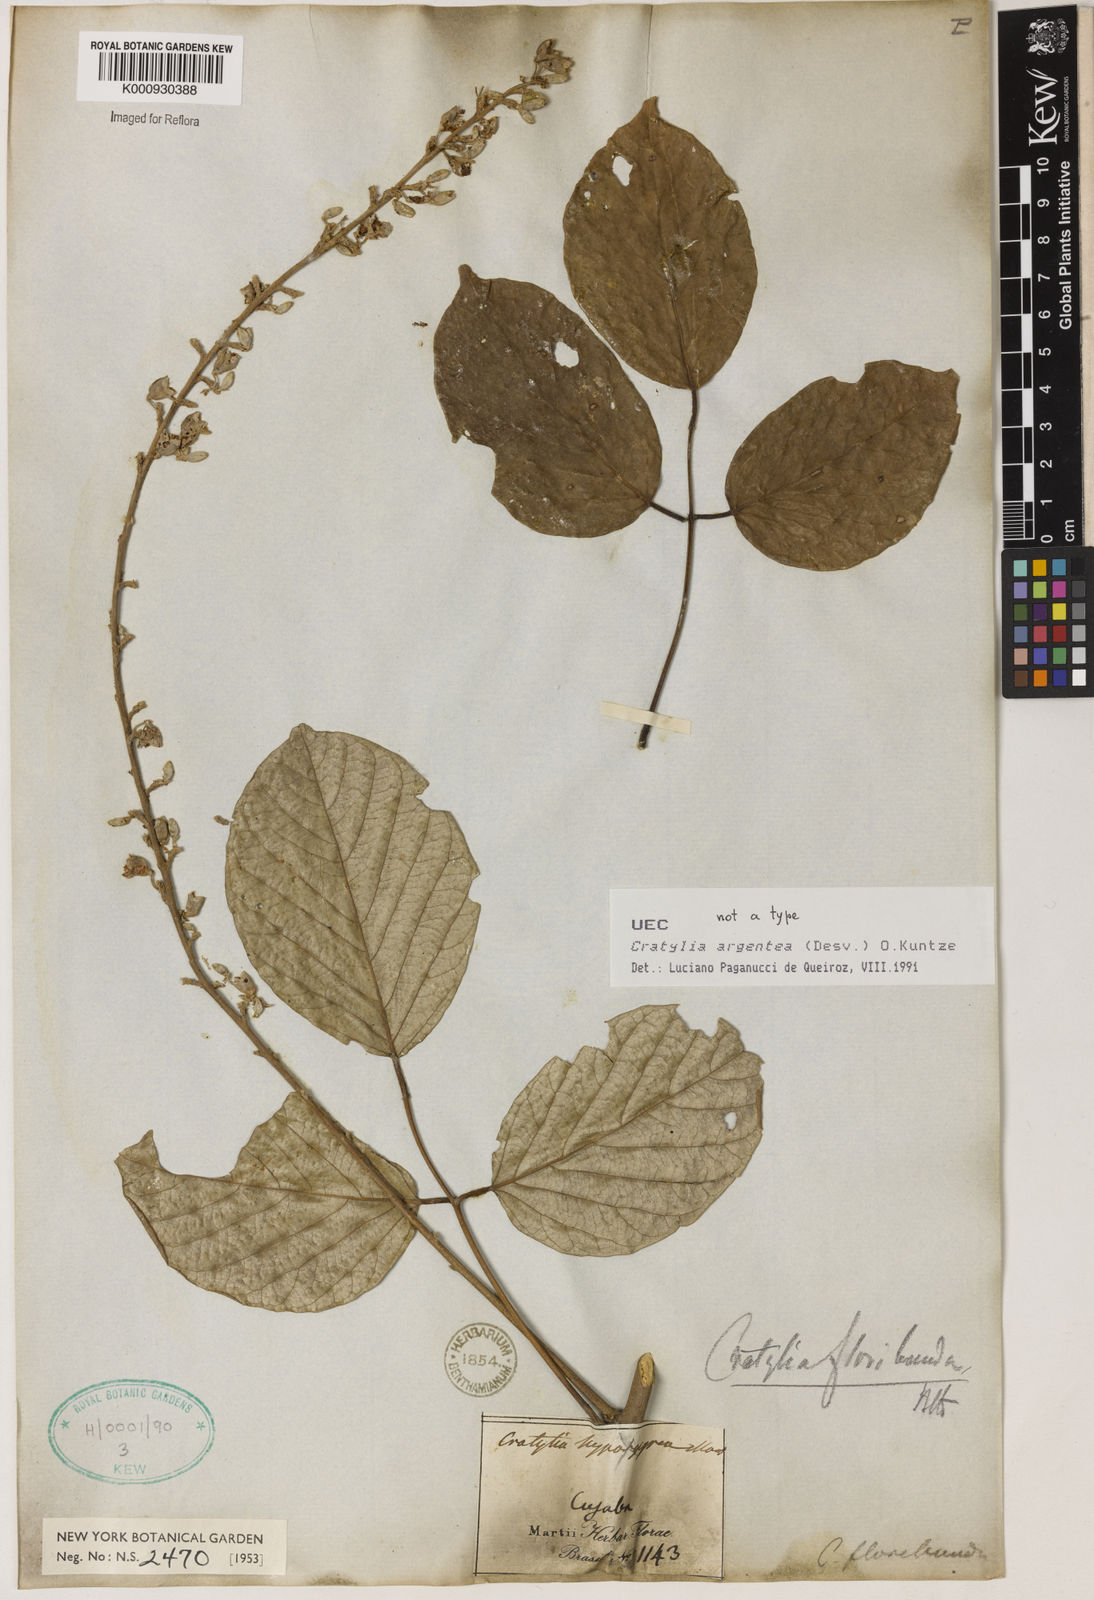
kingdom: Plantae
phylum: Tracheophyta
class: Magnoliopsida
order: Fabales
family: Fabaceae
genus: Cratylia
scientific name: Cratylia argentea
